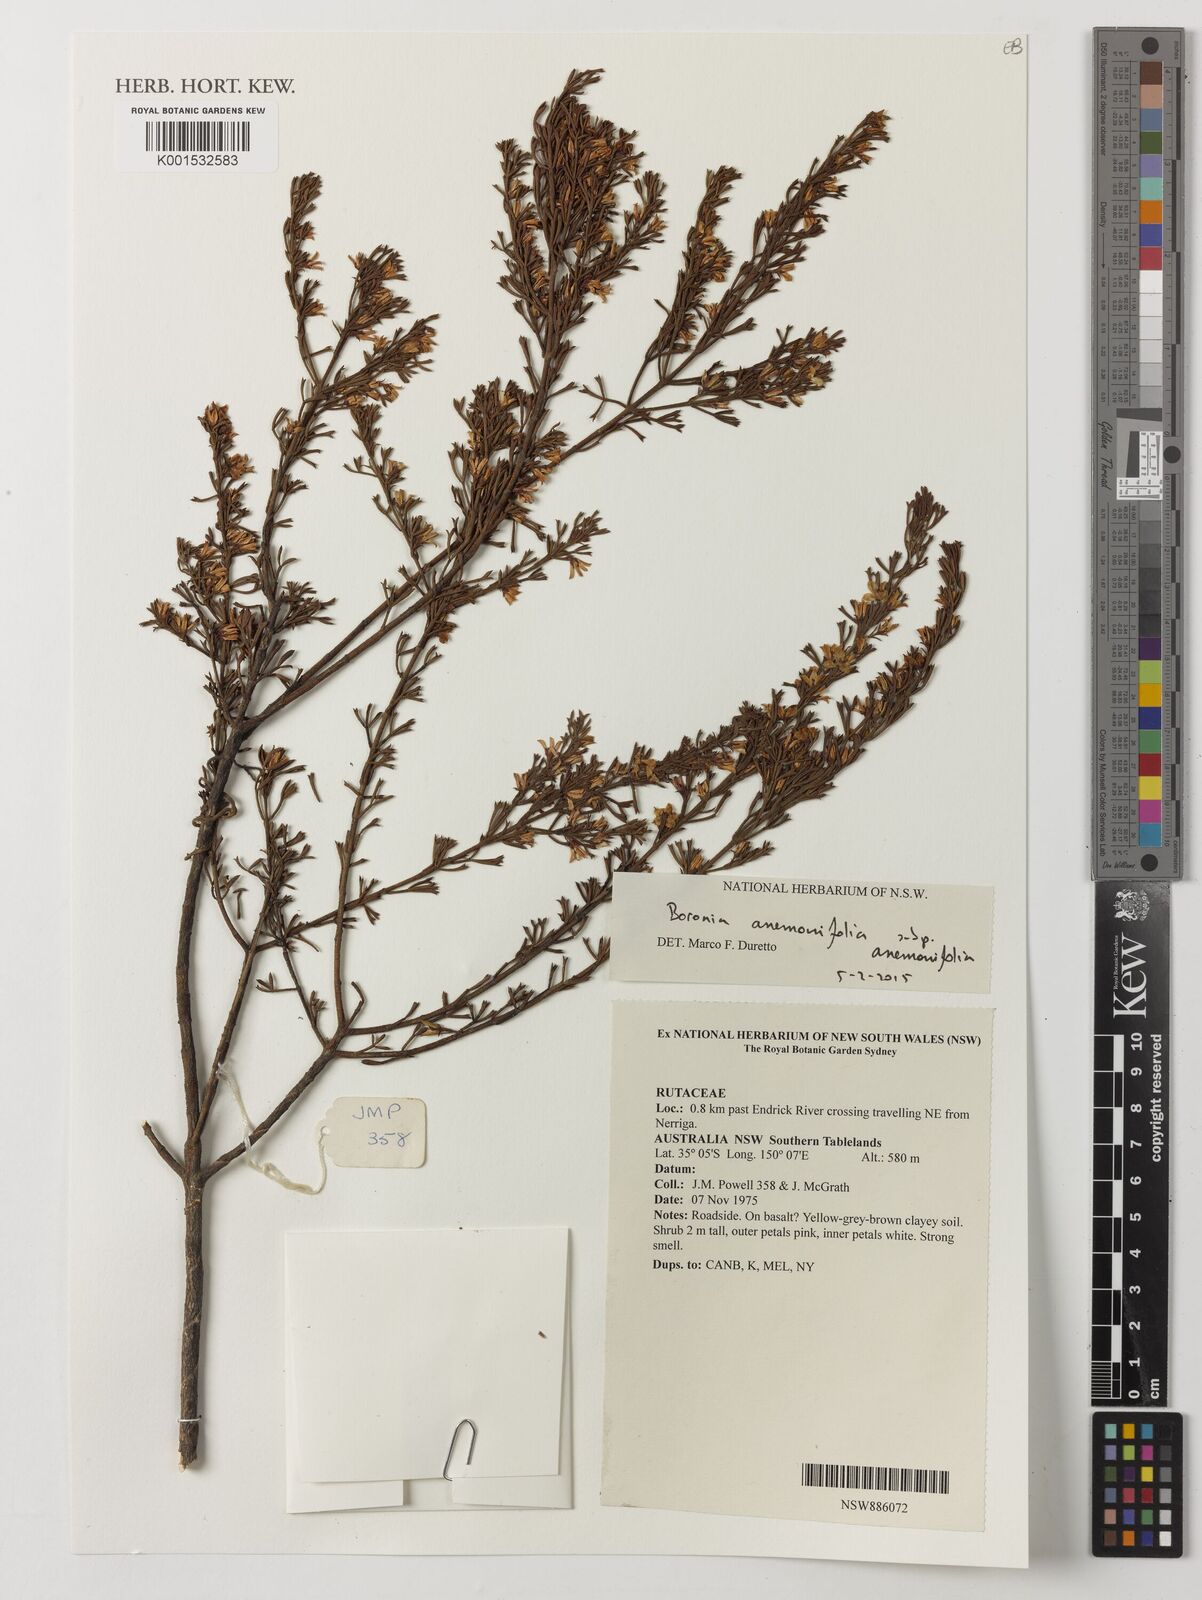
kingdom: Plantae
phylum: Tracheophyta
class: Magnoliopsida
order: Sapindales
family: Rutaceae
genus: Cyanothamnus
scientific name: Cyanothamnus anemonifolius
